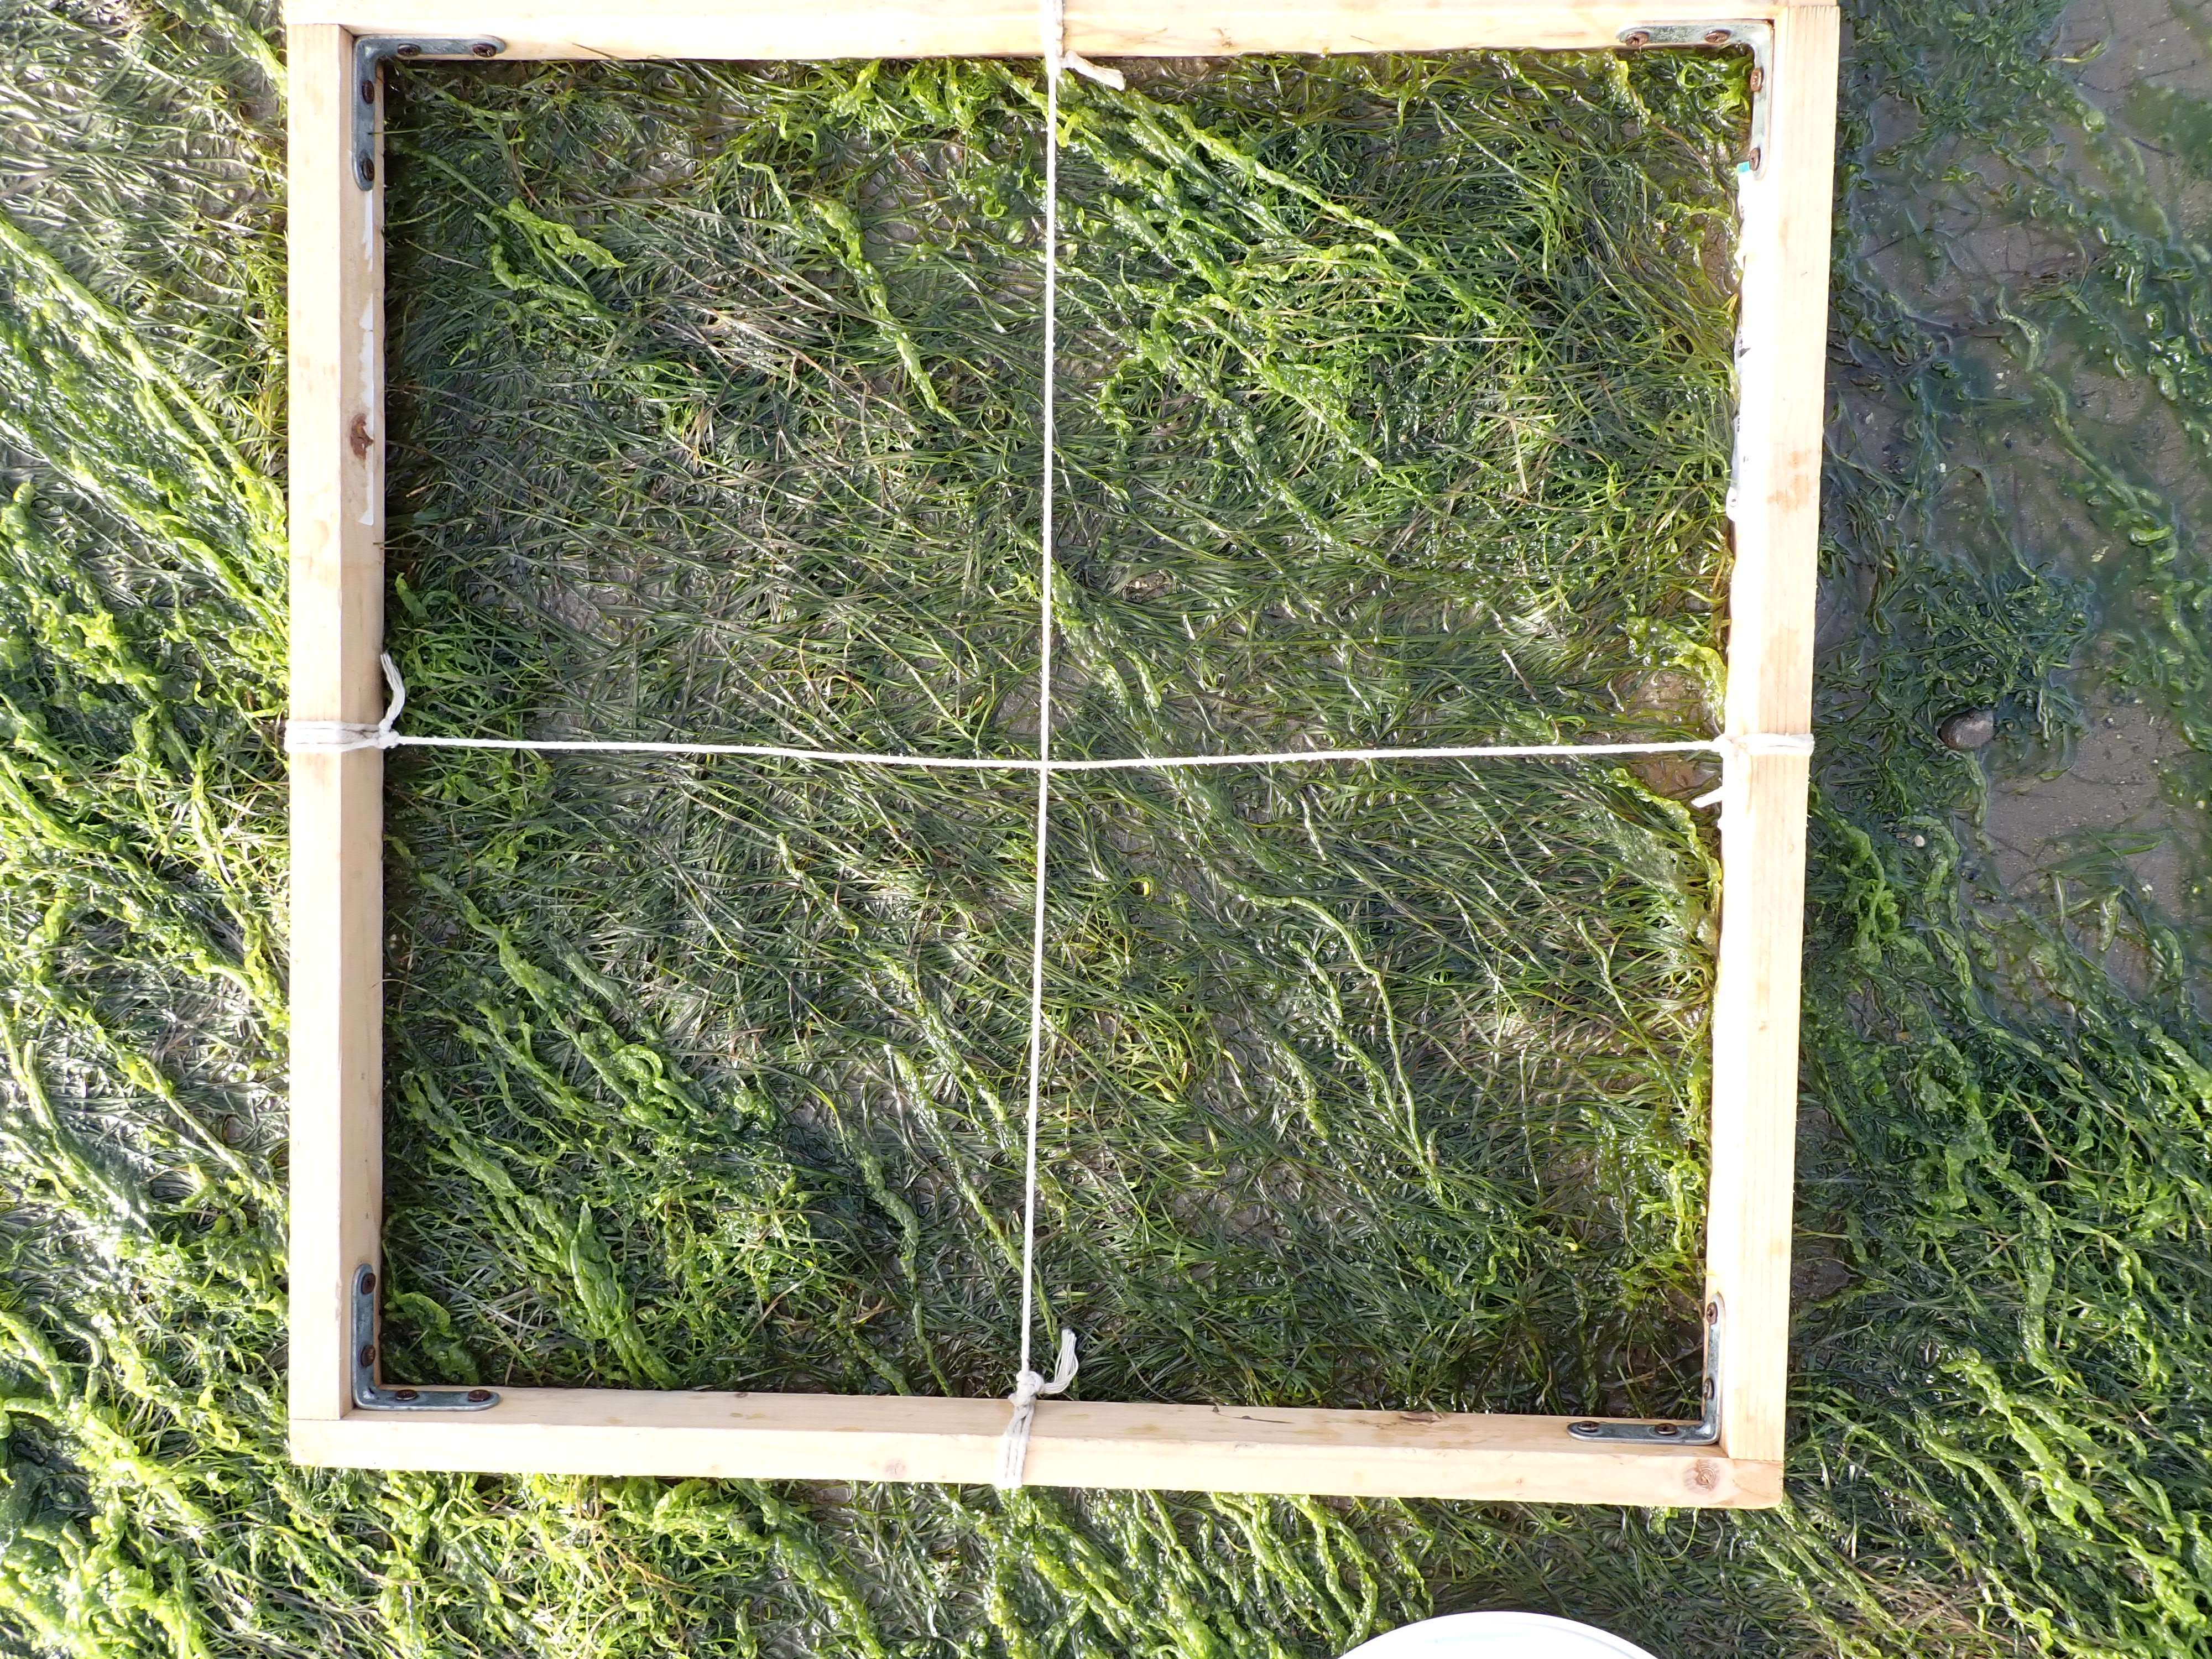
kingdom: Plantae
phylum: Tracheophyta
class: Liliopsida
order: Alismatales
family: Zosteraceae
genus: Zostera
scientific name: Zostera noltii
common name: Dwarf eelgrass
